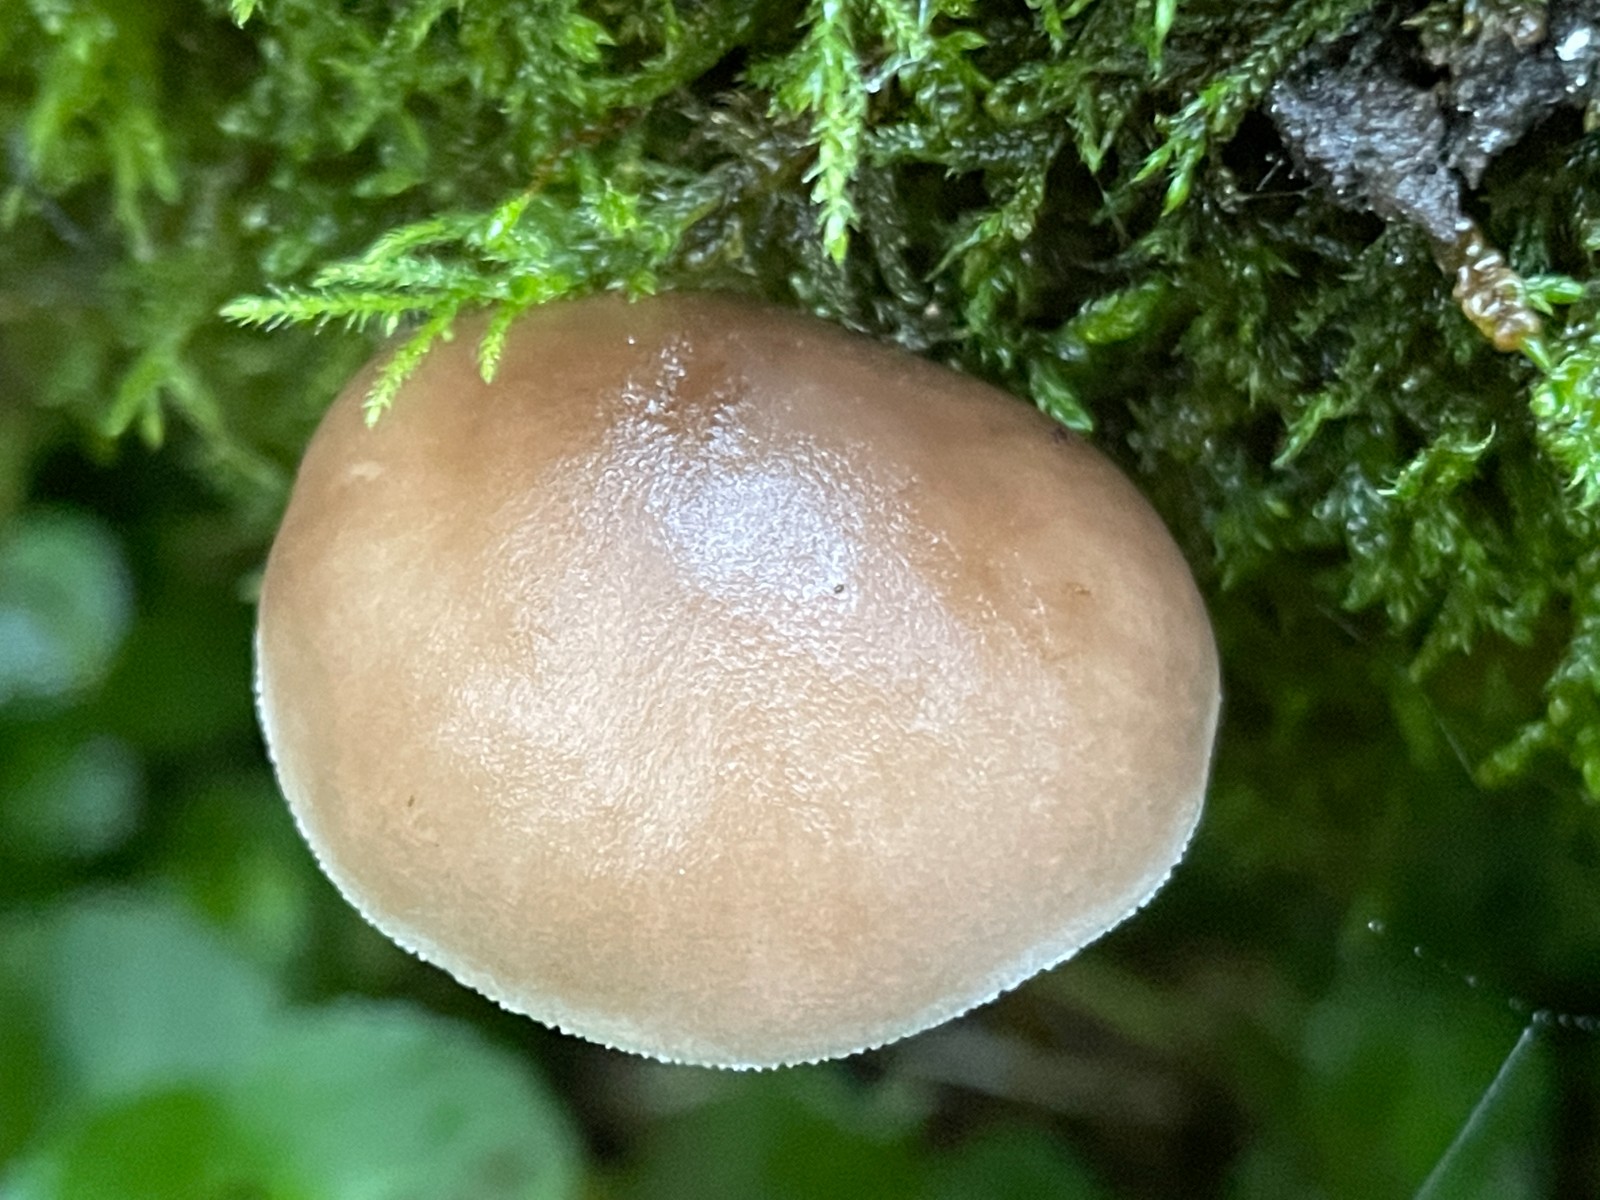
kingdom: Fungi
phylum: Basidiomycota
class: Agaricomycetes
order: Agaricales
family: Pluteaceae
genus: Pluteus
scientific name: Pluteus
